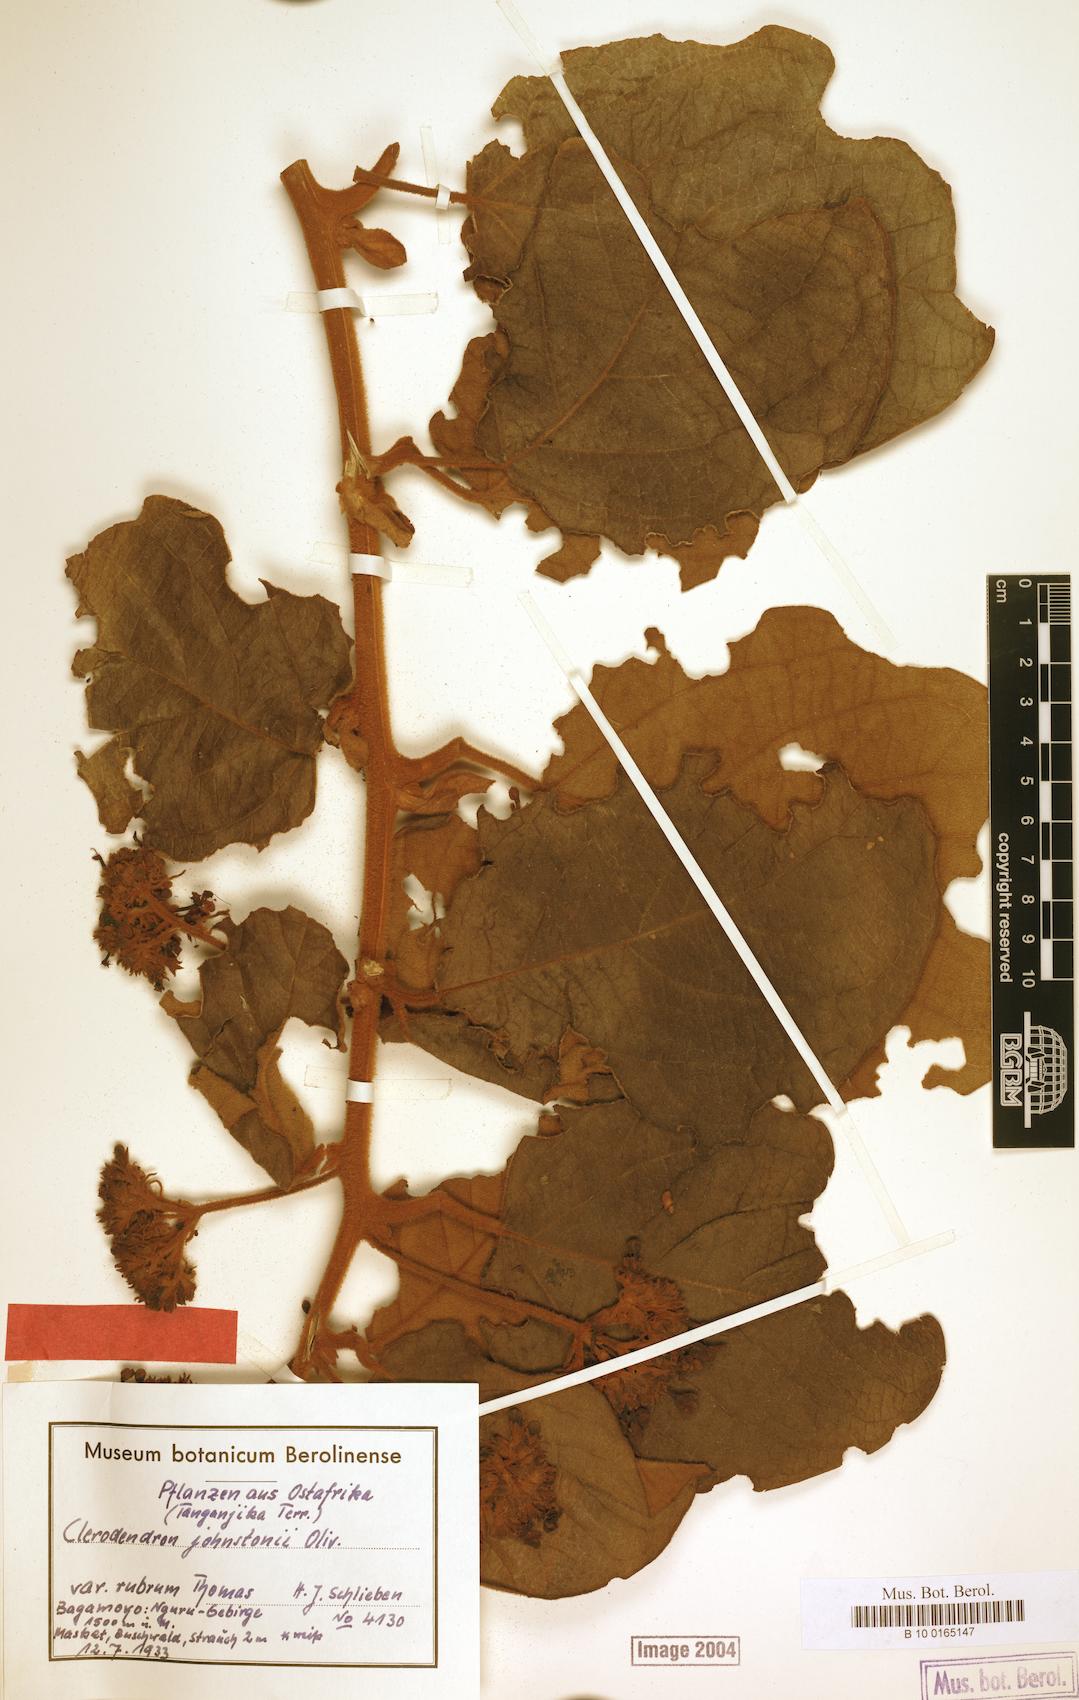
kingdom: Plantae
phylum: Tracheophyta
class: Magnoliopsida
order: Lamiales
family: Lamiaceae
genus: Clerodendrum
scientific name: Clerodendrum johnstonii
